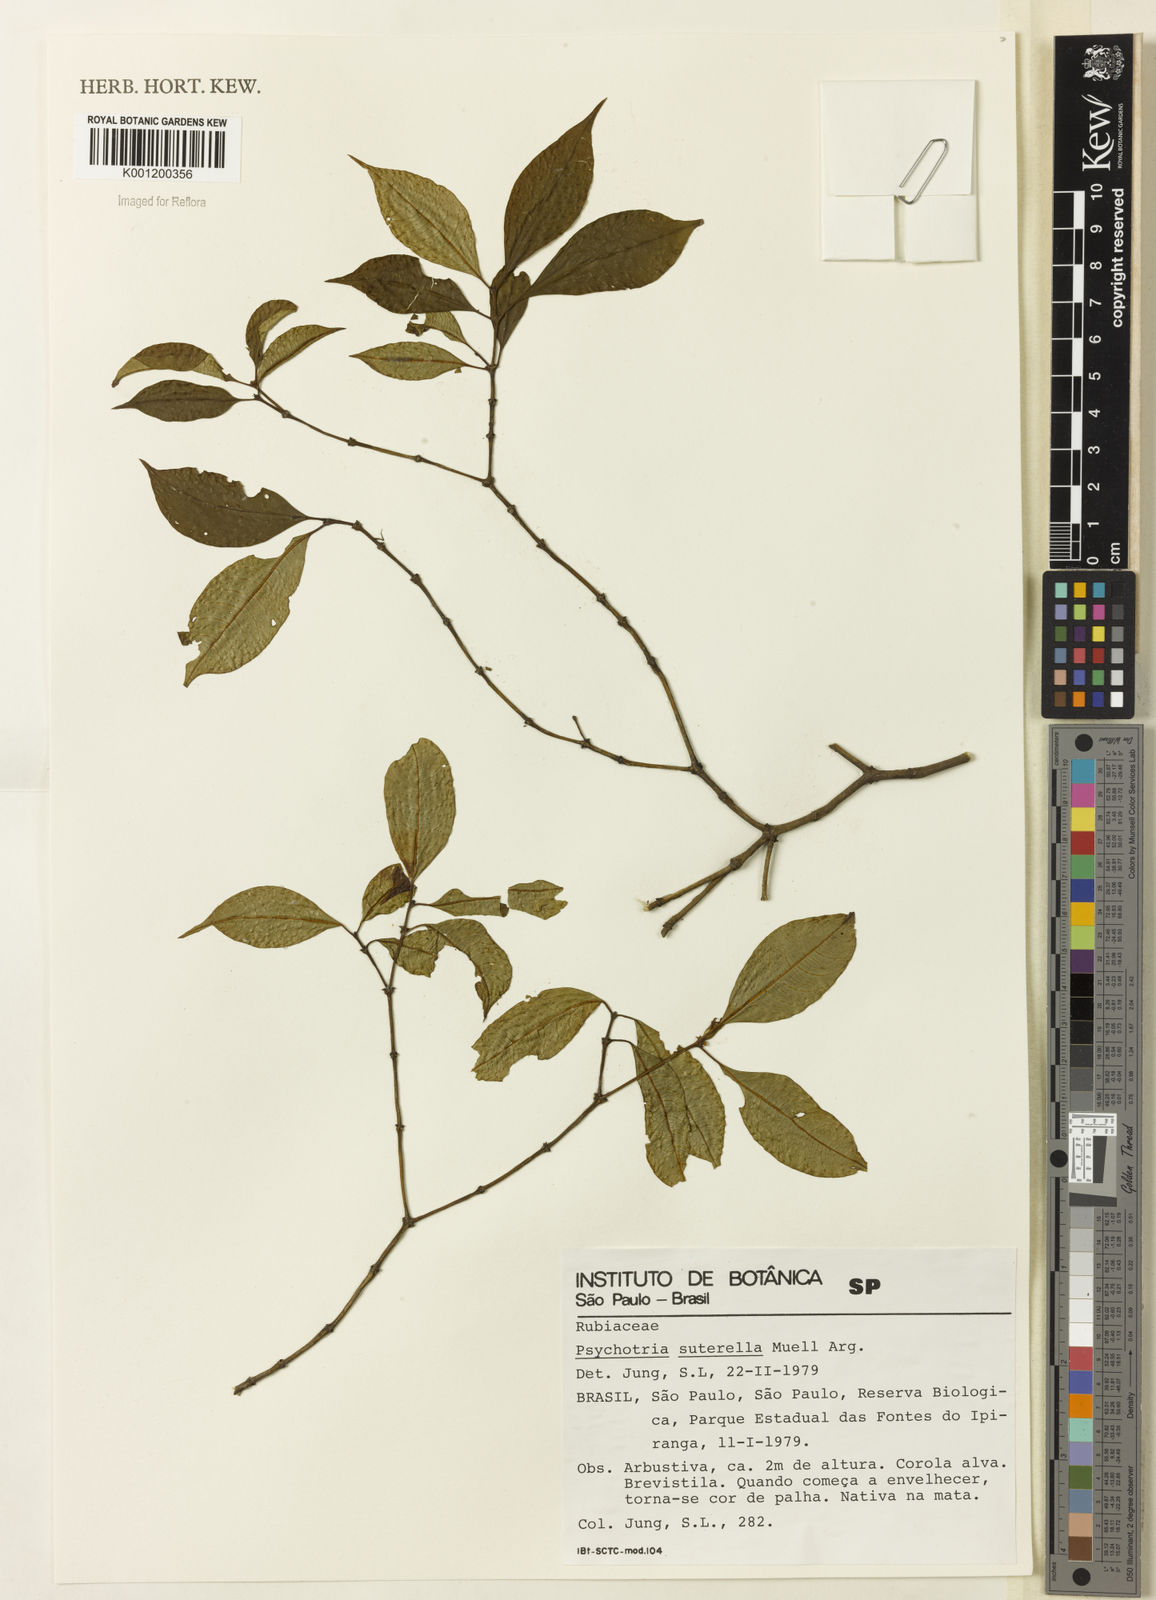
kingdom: Plantae
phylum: Tracheophyta
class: Magnoliopsida
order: Gentianales
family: Rubiaceae
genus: Psychotria
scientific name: Psychotria
